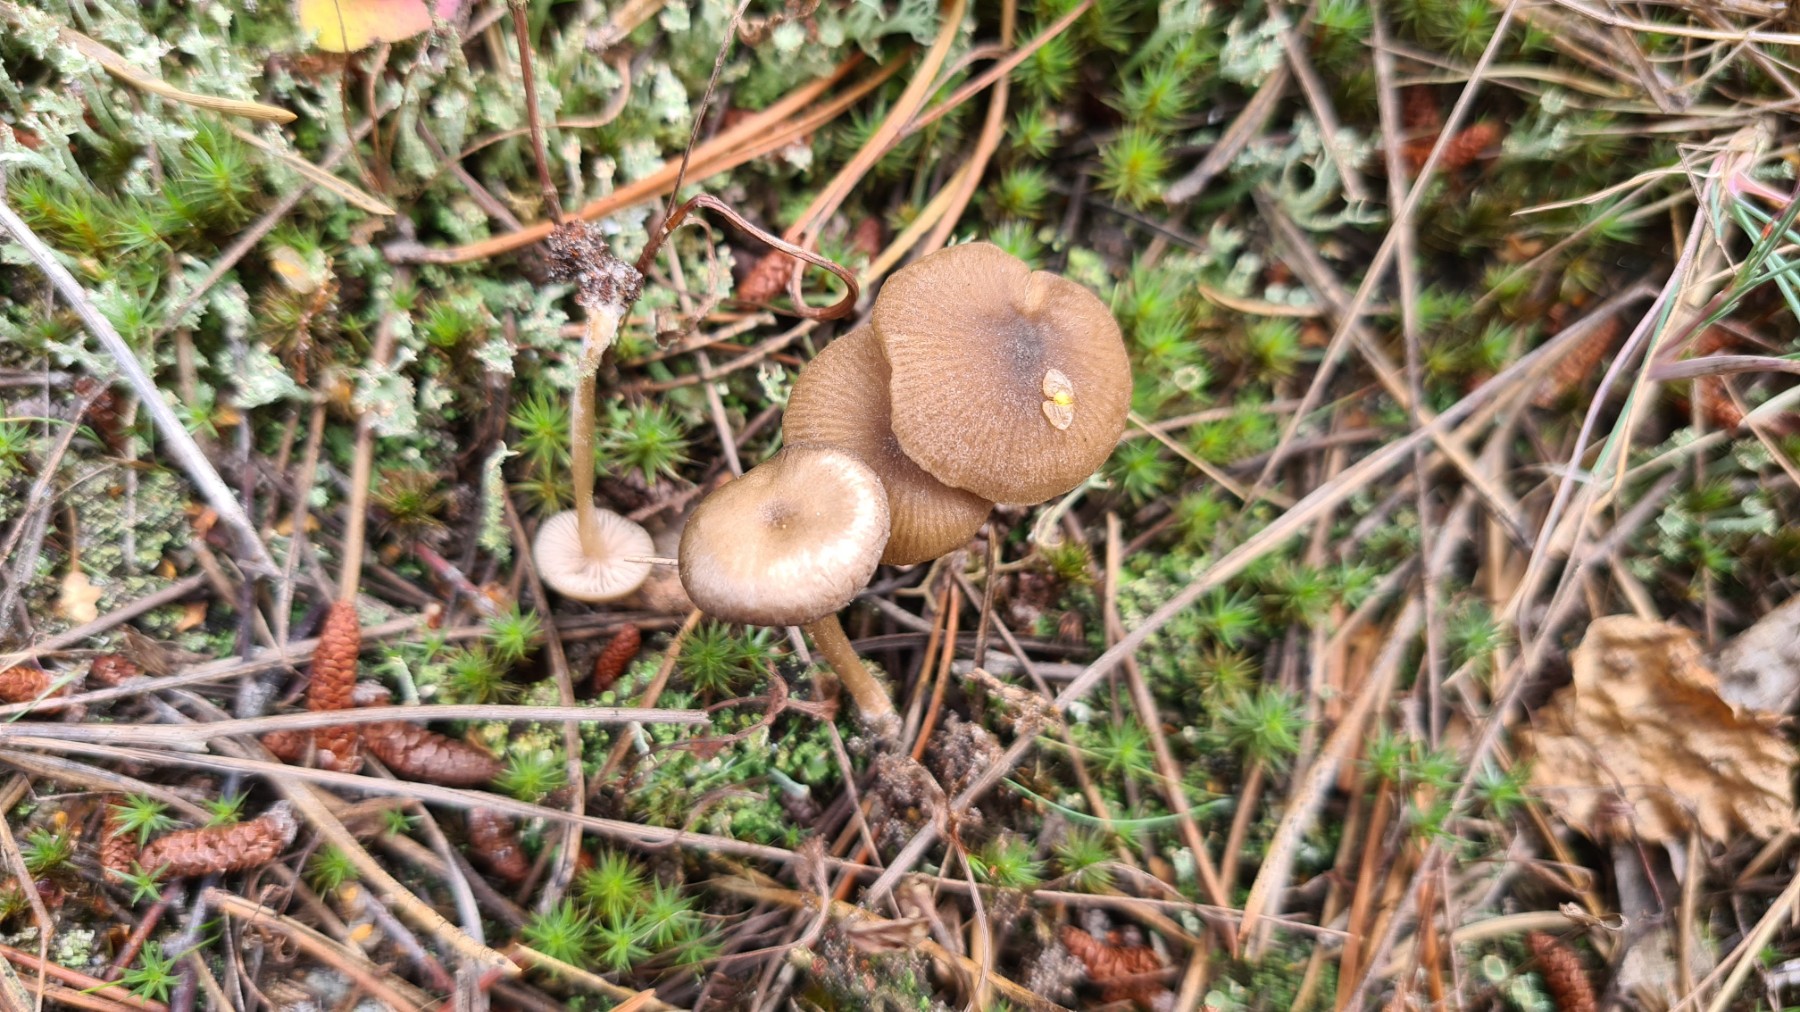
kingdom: Fungi
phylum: Basidiomycota
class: Agaricomycetes
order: Agaricales
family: Entolomataceae
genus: Entoloma
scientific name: Entoloma
